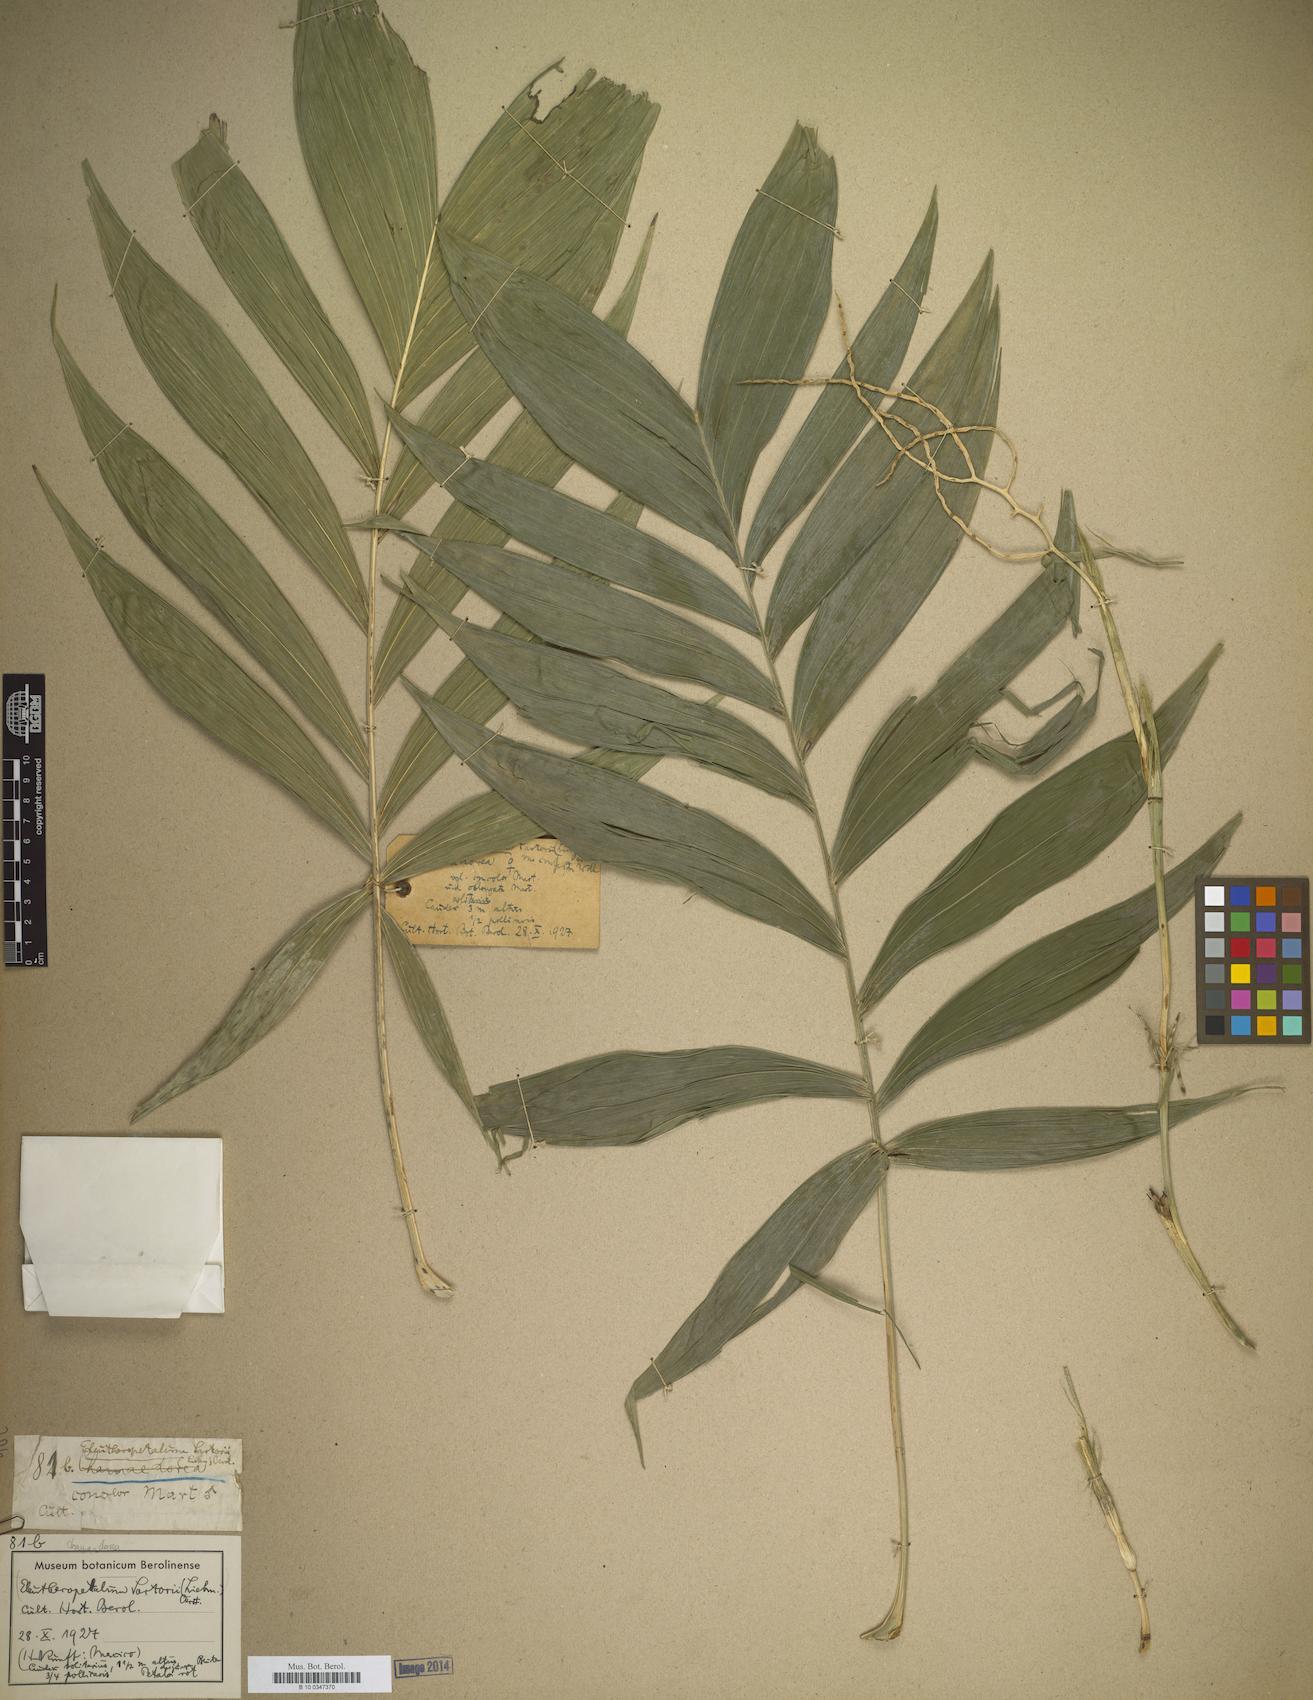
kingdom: Plantae
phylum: Tracheophyta
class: Liliopsida
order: Arecales
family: Arecaceae
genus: Chamaedorea
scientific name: Chamaedorea sartorii
